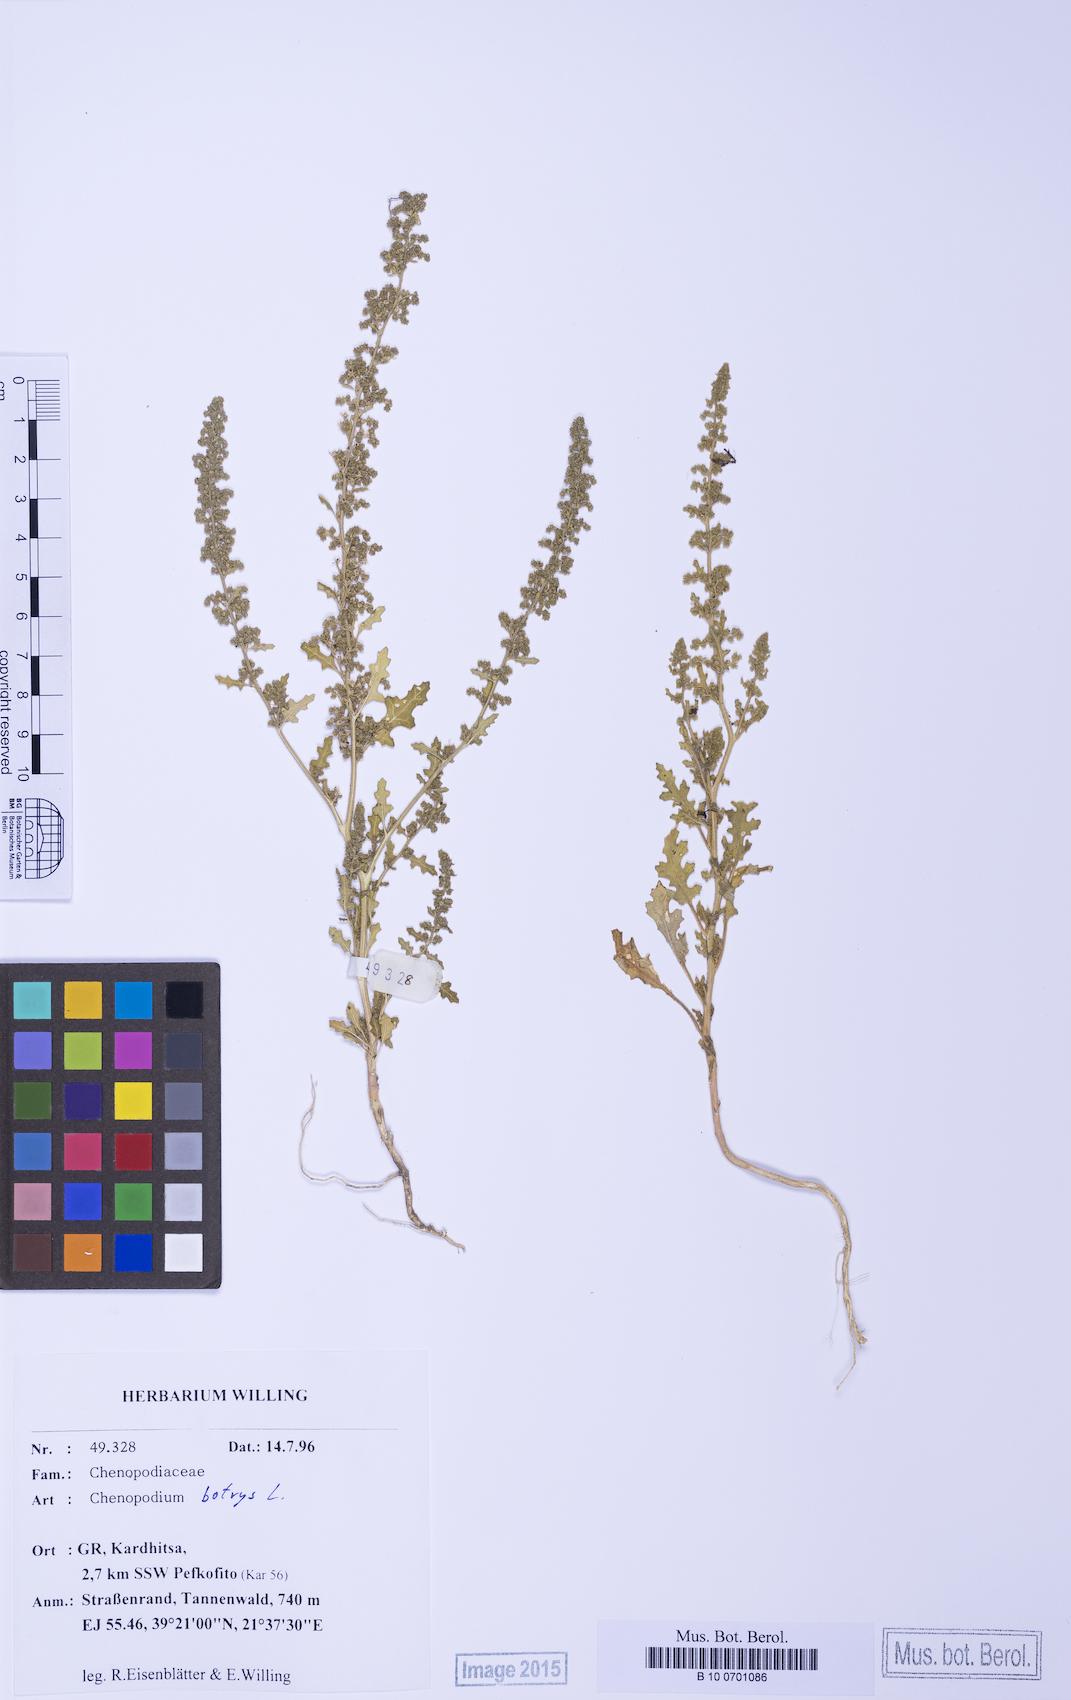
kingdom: Plantae
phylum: Tracheophyta
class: Magnoliopsida
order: Caryophyllales
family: Amaranthaceae
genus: Dysphania
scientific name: Dysphania botrys
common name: Feather-geranium
